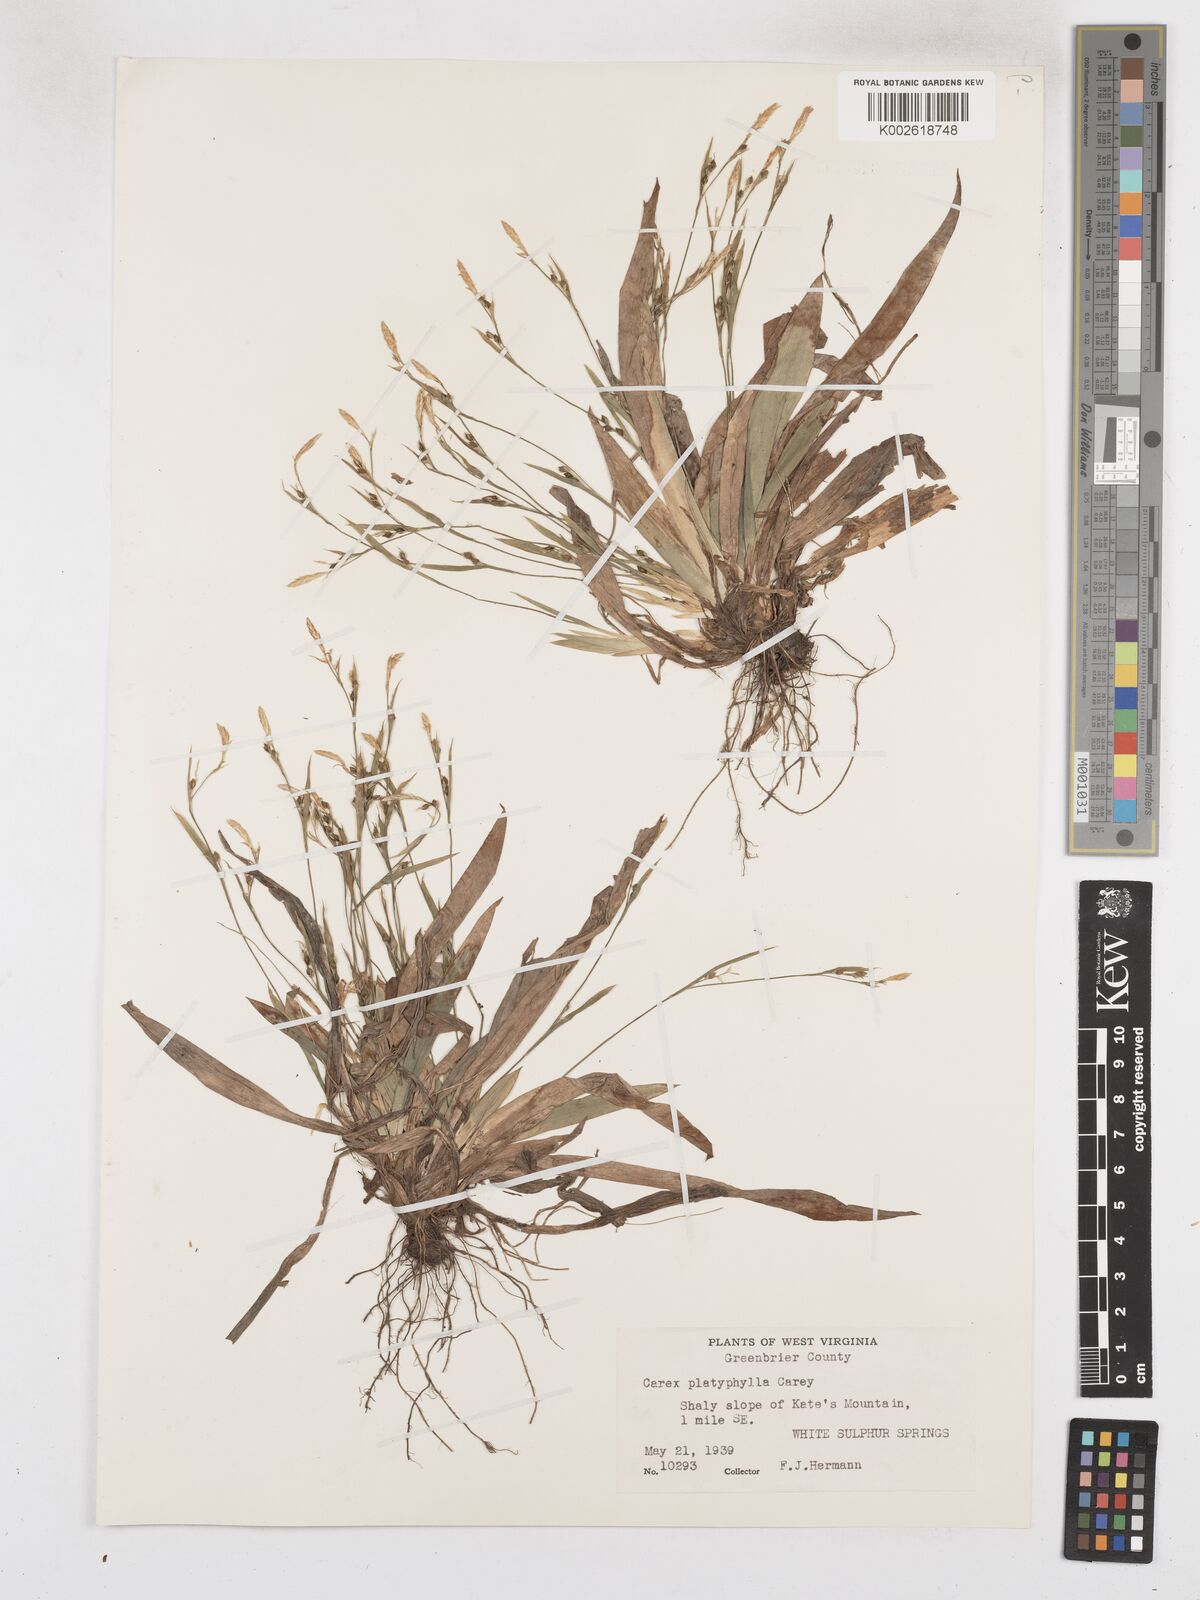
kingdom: Plantae
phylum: Tracheophyta
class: Liliopsida
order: Poales
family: Cyperaceae
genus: Carex
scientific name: Carex platyphylla
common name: Broad-leaved sedge
